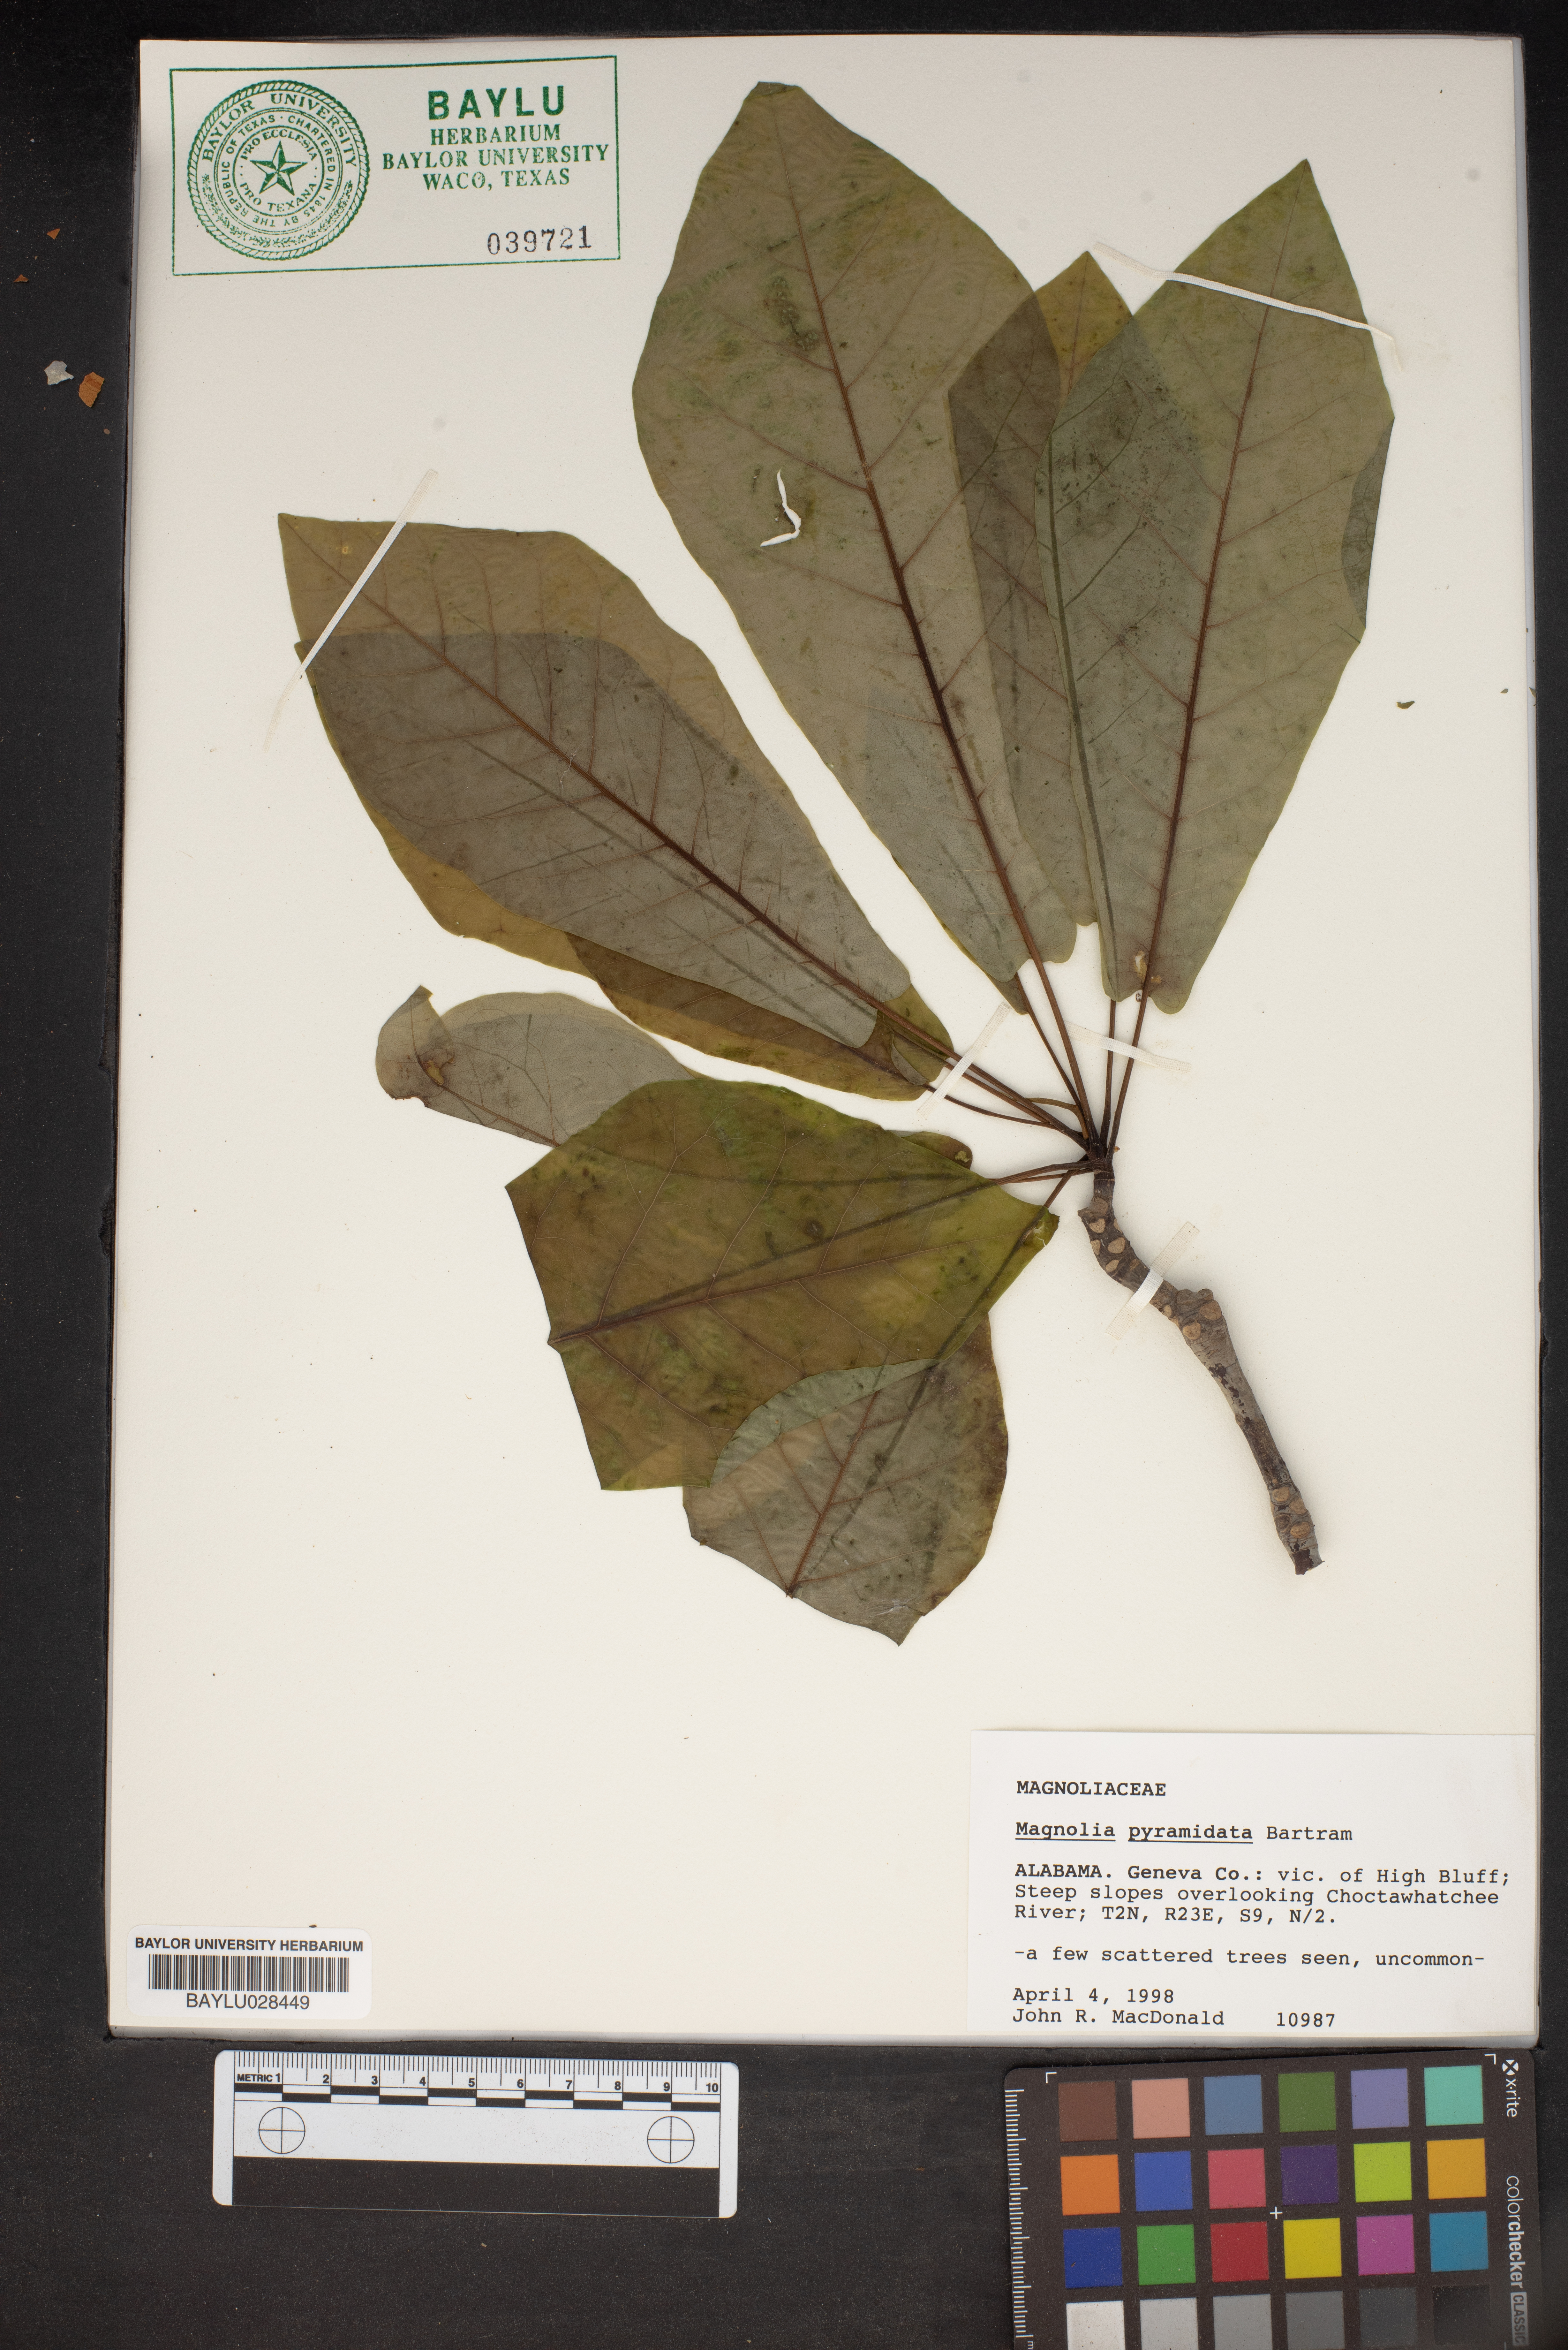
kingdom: Plantae
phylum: Tracheophyta
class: Magnoliopsida
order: Magnoliales
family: Magnoliaceae
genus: Magnolia
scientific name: Magnolia fraseri
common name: Fraser's magnolia
